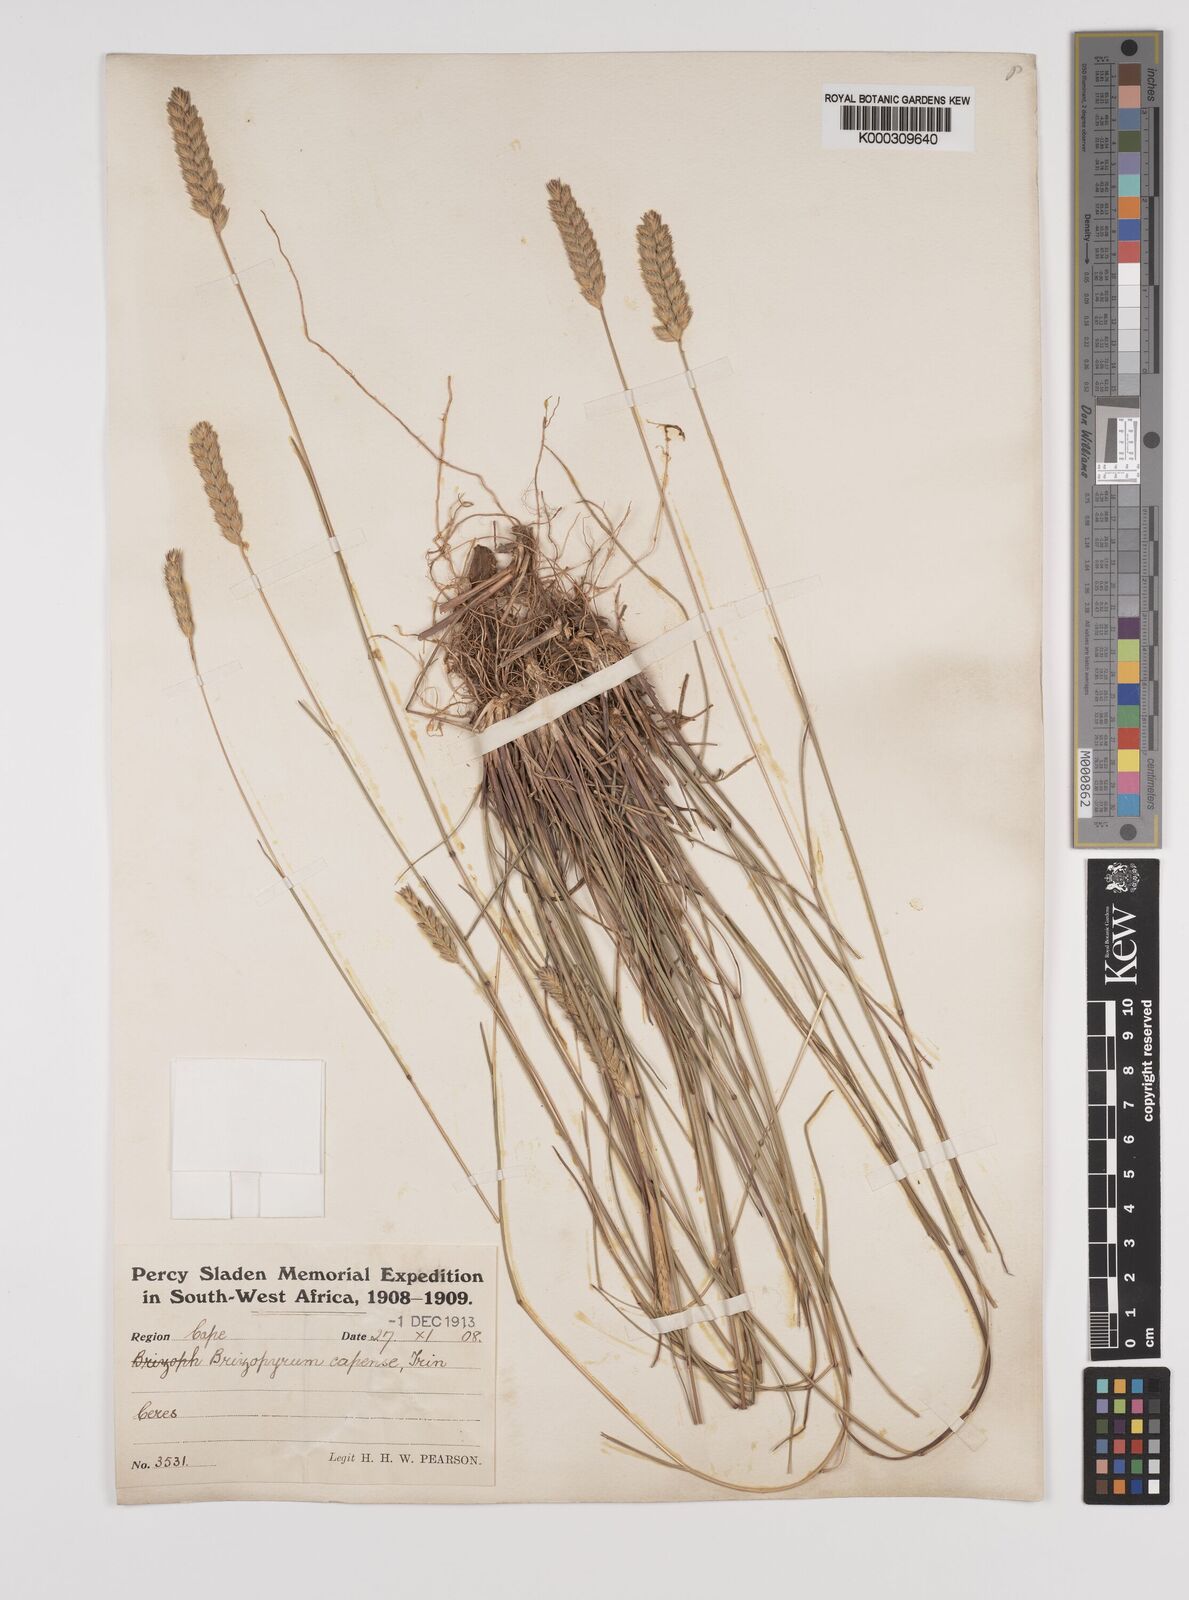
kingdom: Plantae
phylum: Tracheophyta
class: Liliopsida
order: Poales
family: Poaceae
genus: Tribolium
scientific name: Tribolium uniolae
